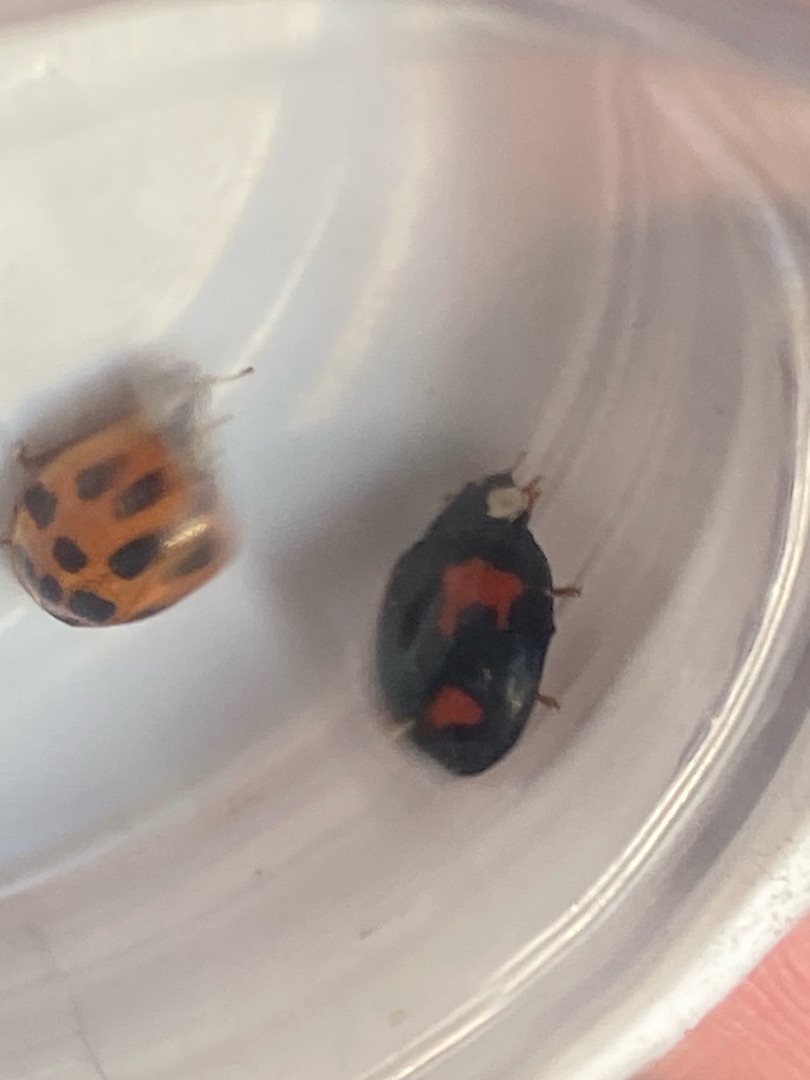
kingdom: Animalia
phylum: Arthropoda
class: Insecta
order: Coleoptera
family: Coccinellidae
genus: Harmonia
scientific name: Harmonia axyridis
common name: Harlekinmariehøne
